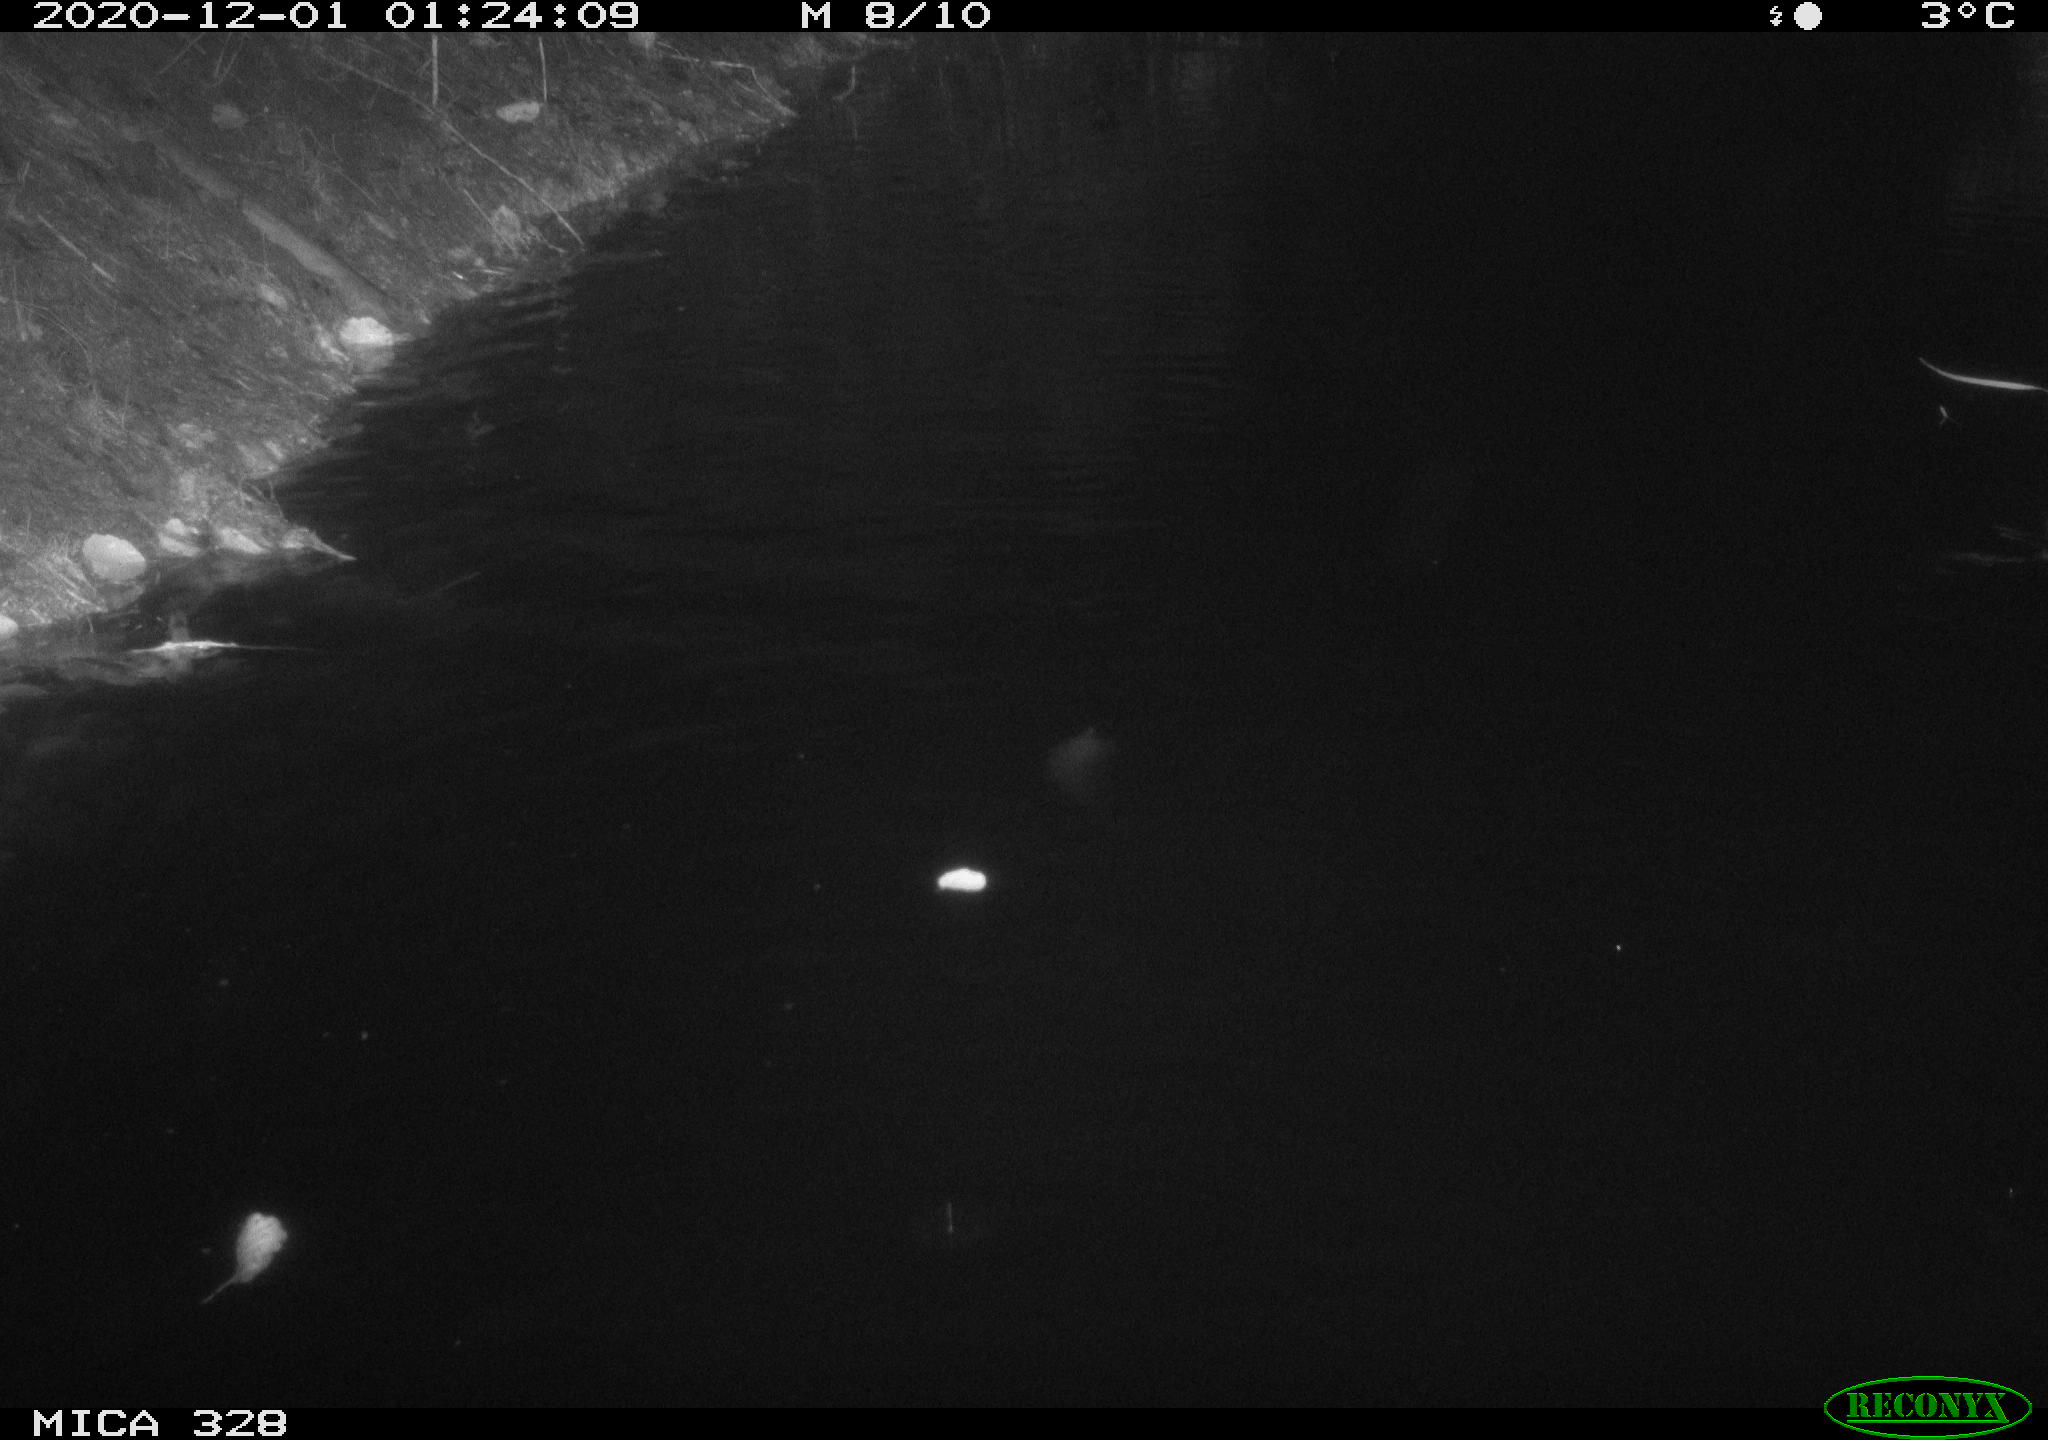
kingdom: Animalia
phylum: Chordata
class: Mammalia
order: Rodentia
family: Cricetidae
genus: Ondatra
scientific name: Ondatra zibethicus
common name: Muskrat
